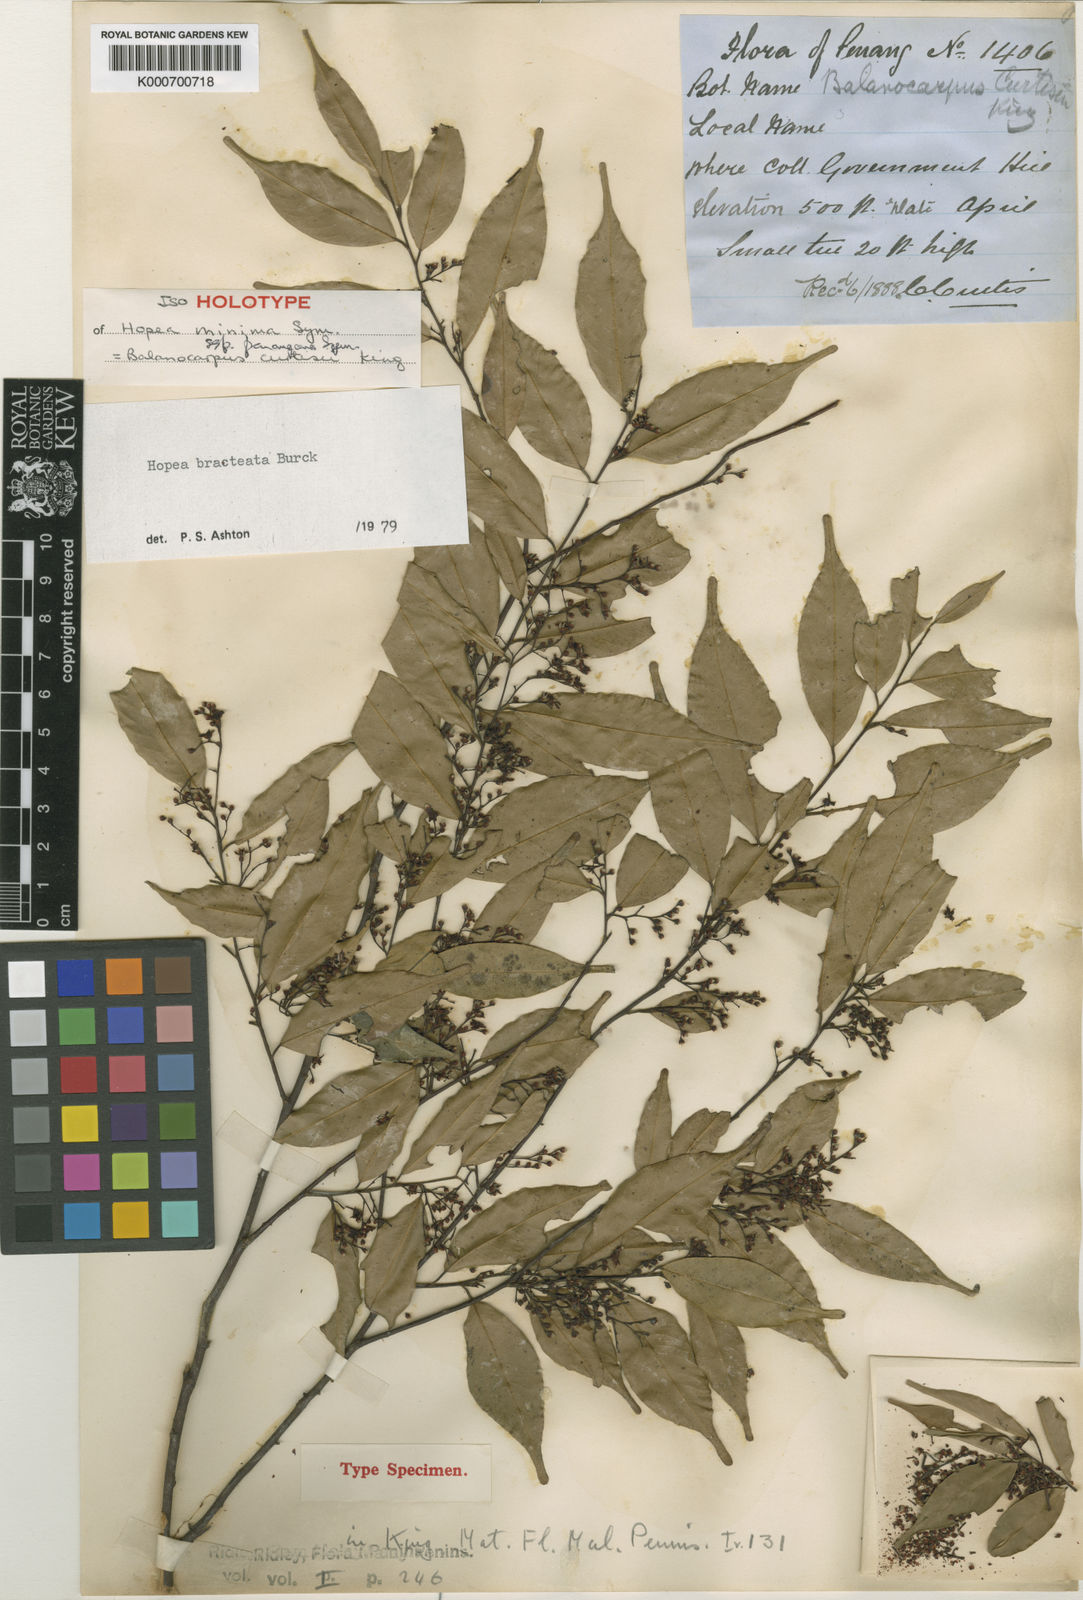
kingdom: Plantae
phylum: Tracheophyta
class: Magnoliopsida
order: Malvales
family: Dipterocarpaceae
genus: Hopea
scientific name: Hopea bracteata
